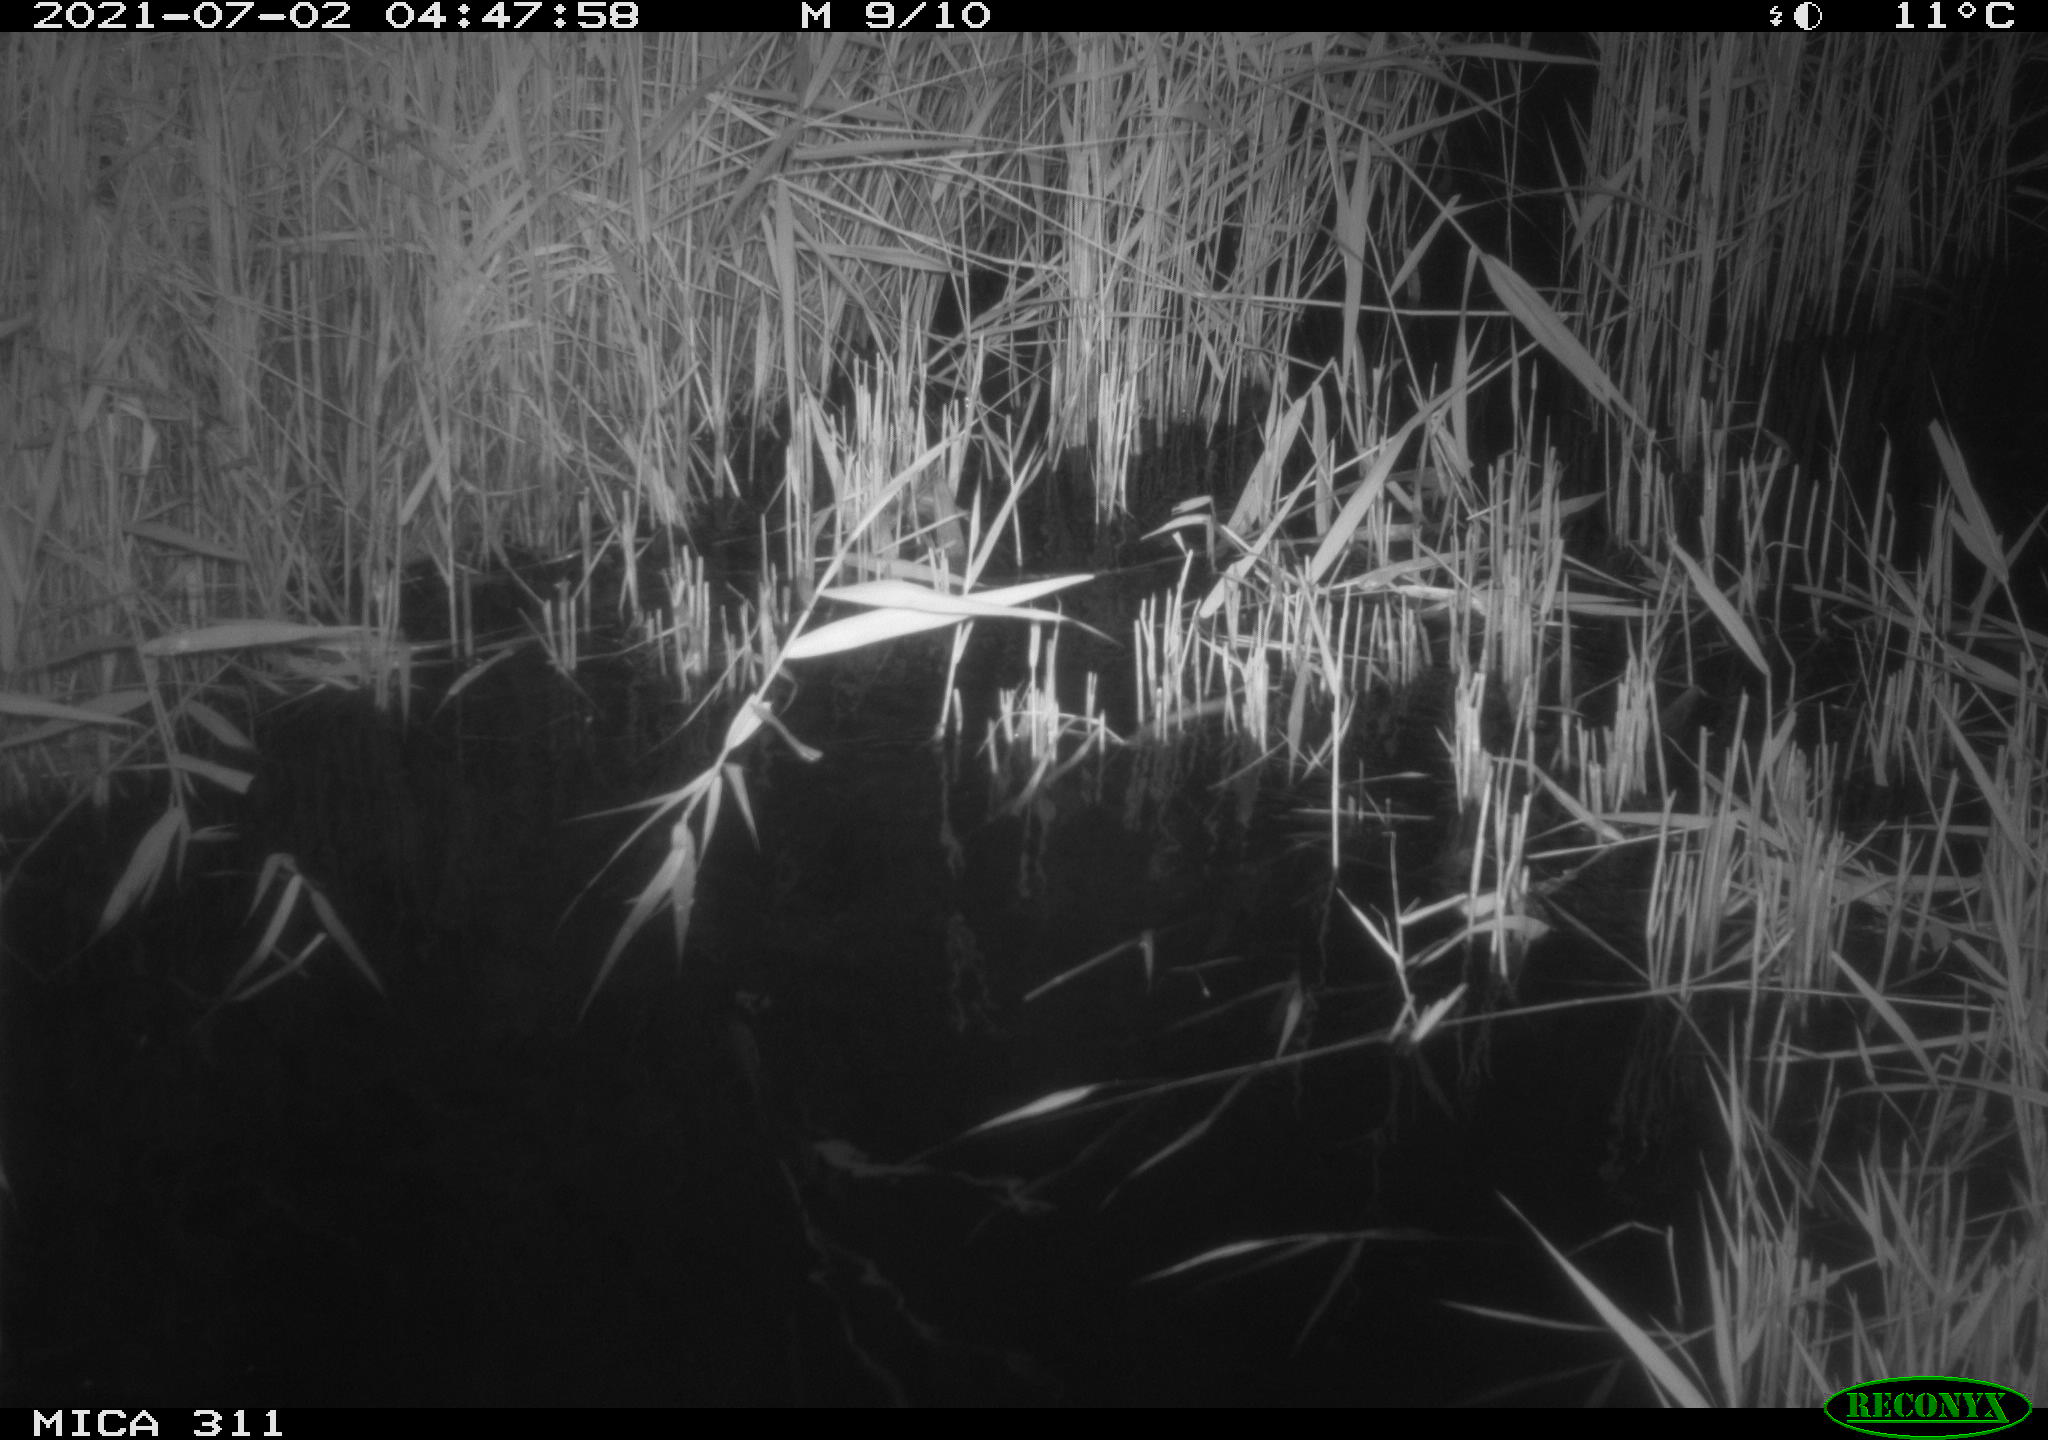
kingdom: Animalia
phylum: Chordata
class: Mammalia
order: Rodentia
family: Muridae
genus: Rattus
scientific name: Rattus norvegicus
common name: Brown rat
